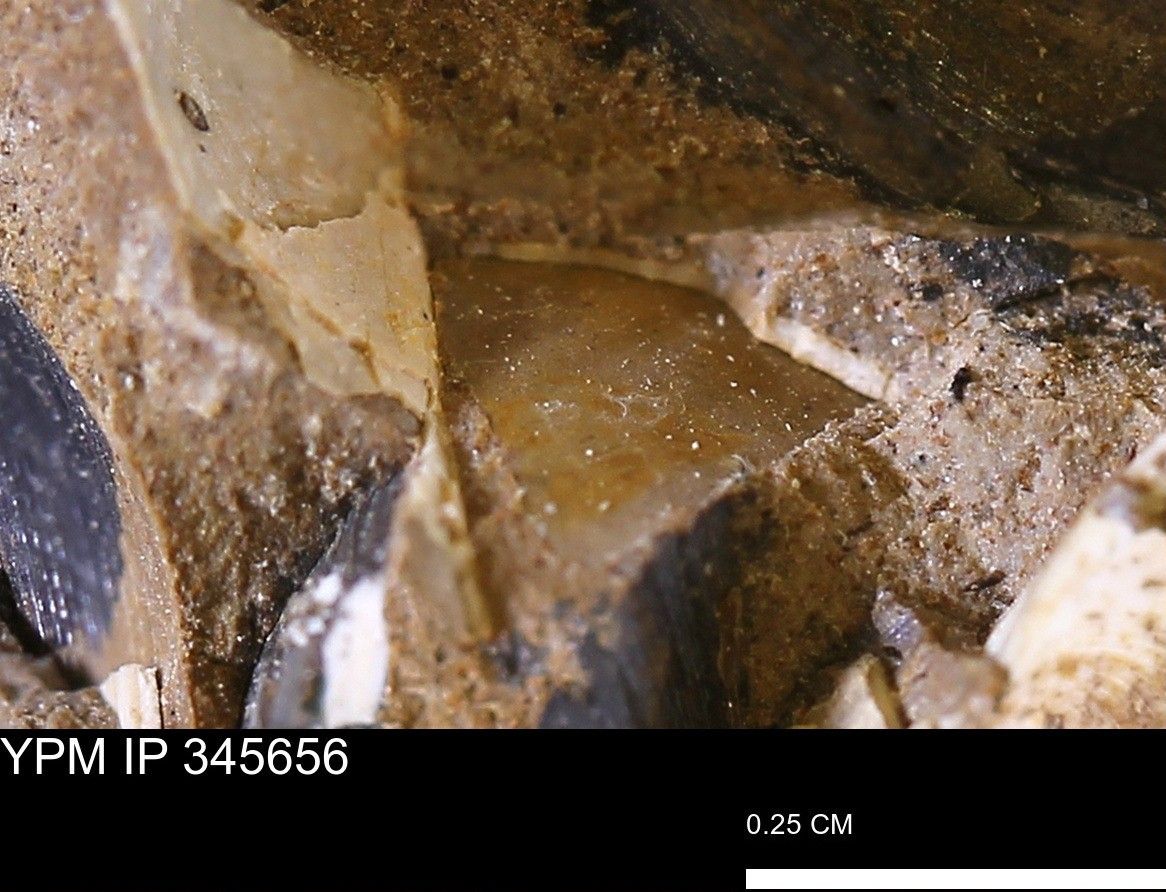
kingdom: Animalia
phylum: Mollusca
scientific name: Mollusca
